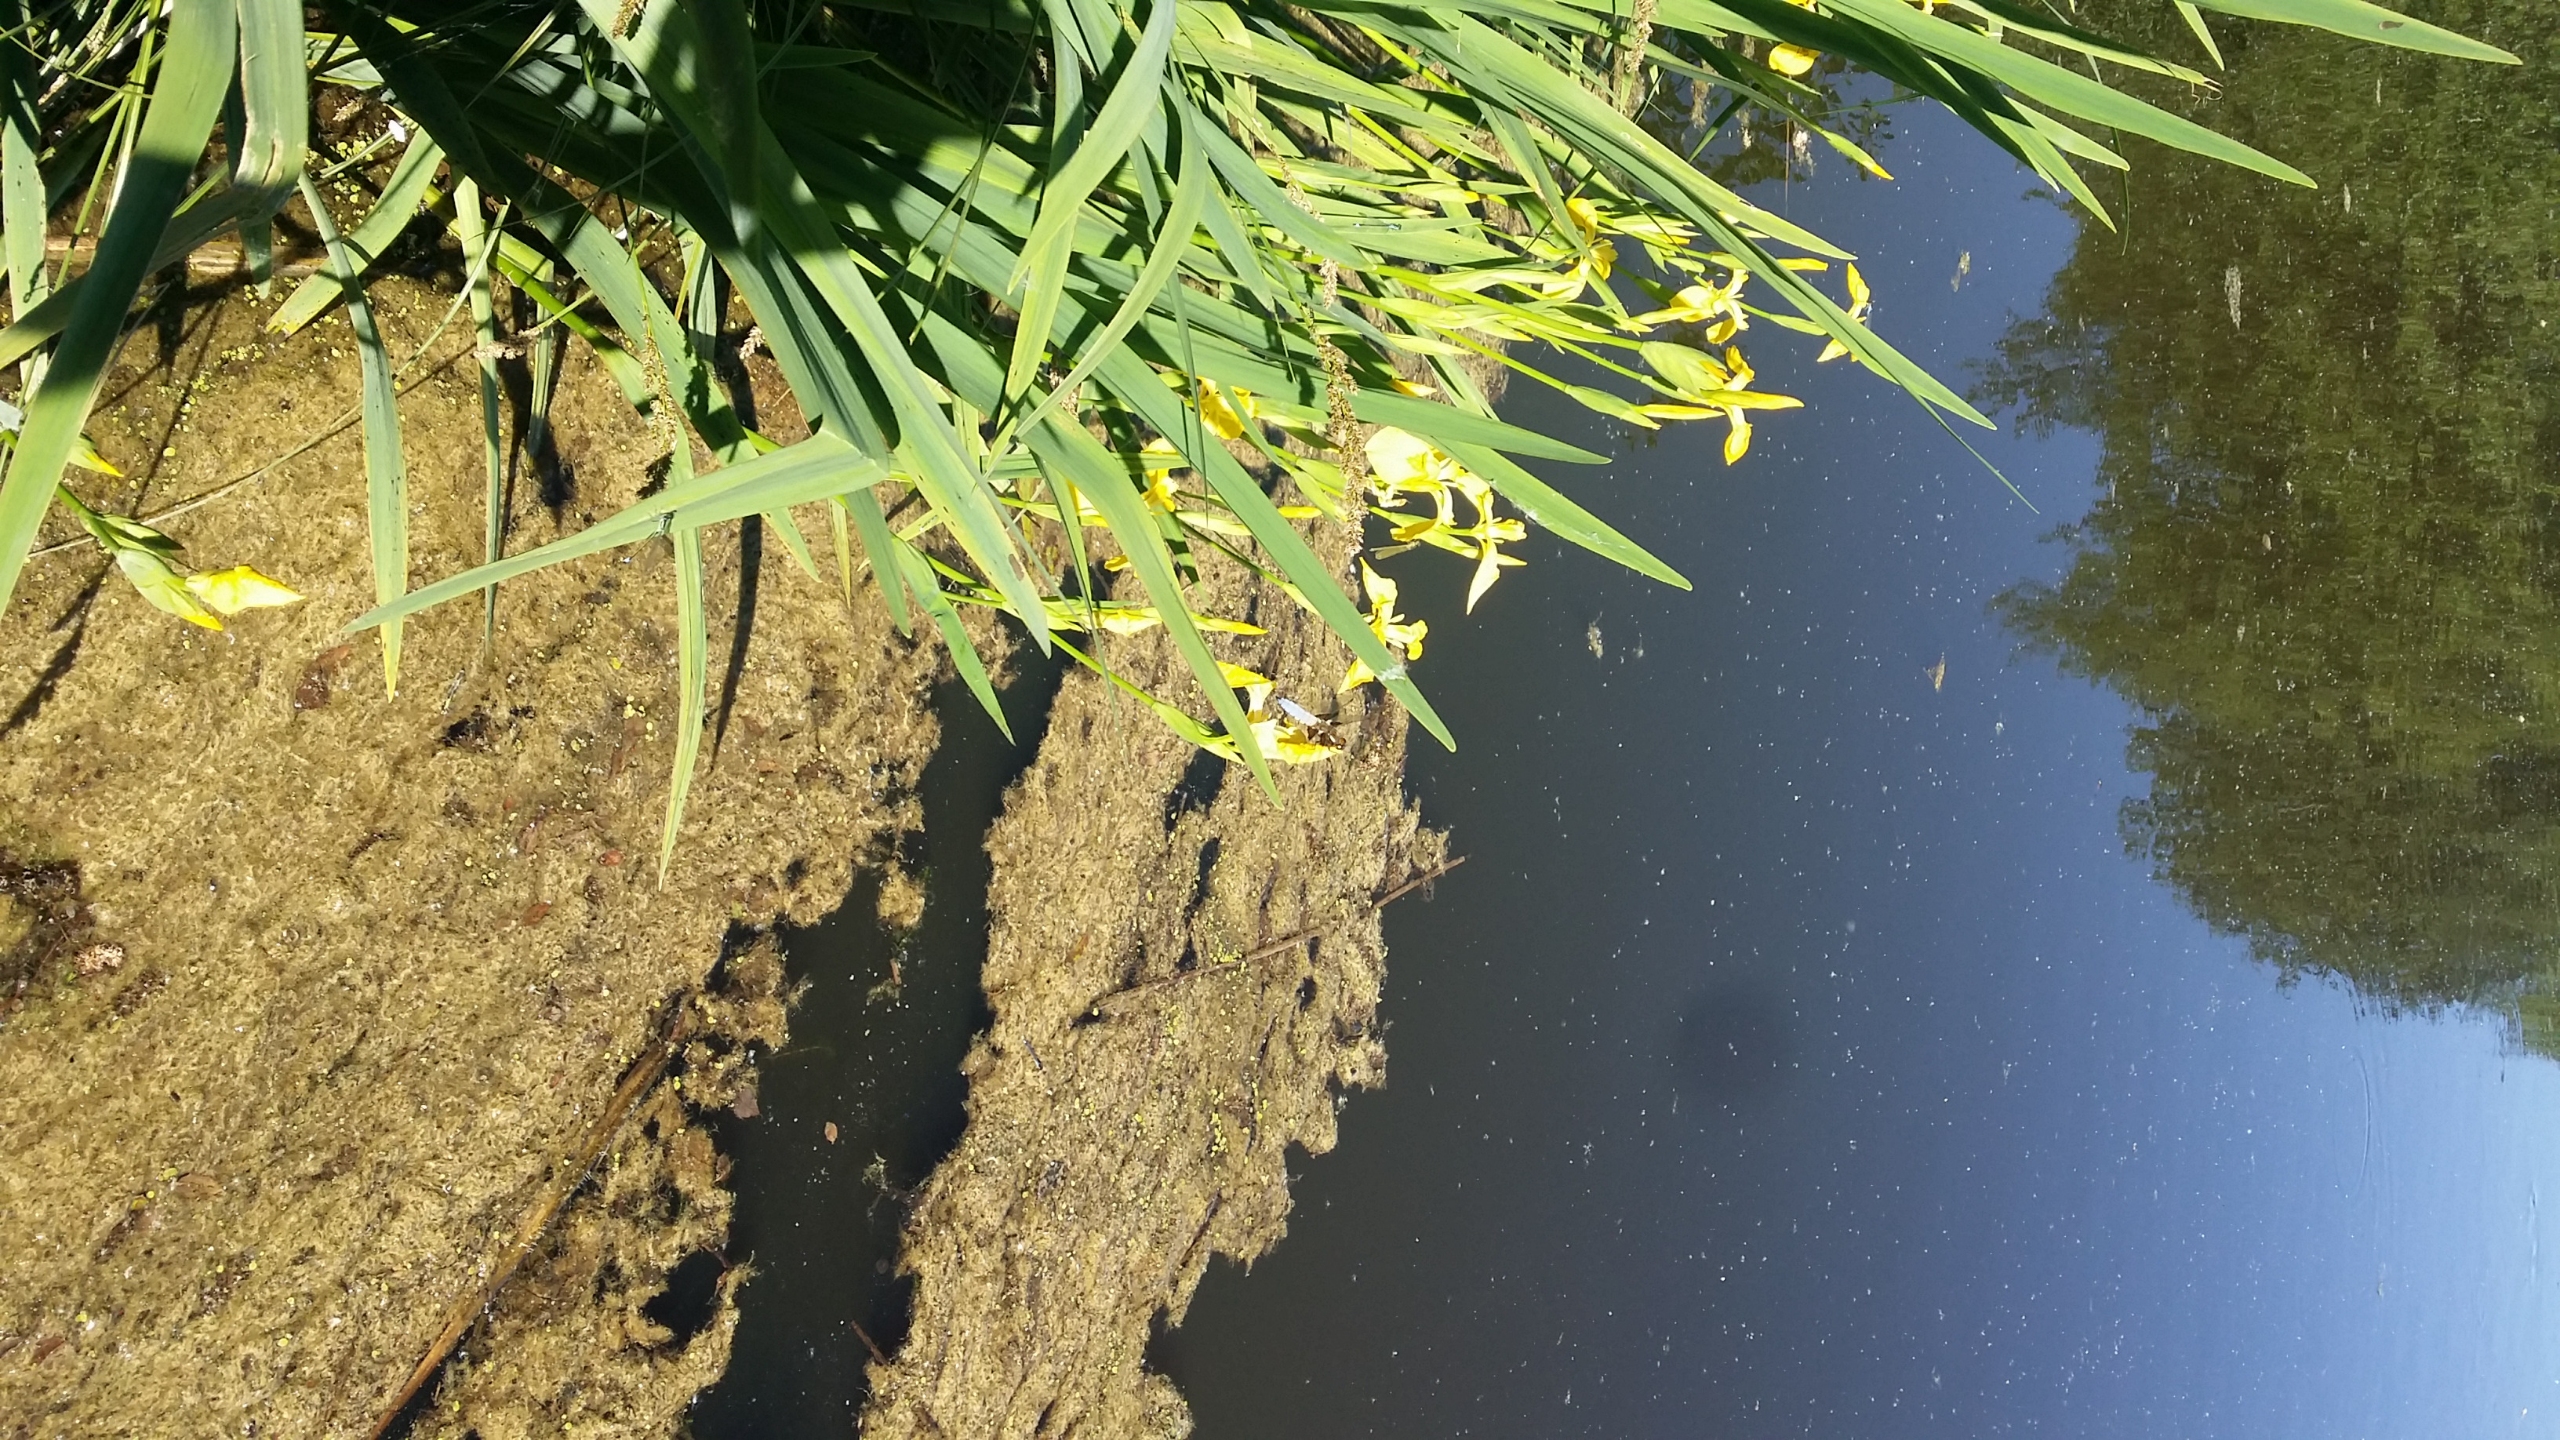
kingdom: Plantae
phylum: Tracheophyta
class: Liliopsida
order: Asparagales
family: Iridaceae
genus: Iris
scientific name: Iris pseudacorus
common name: Gul iris
